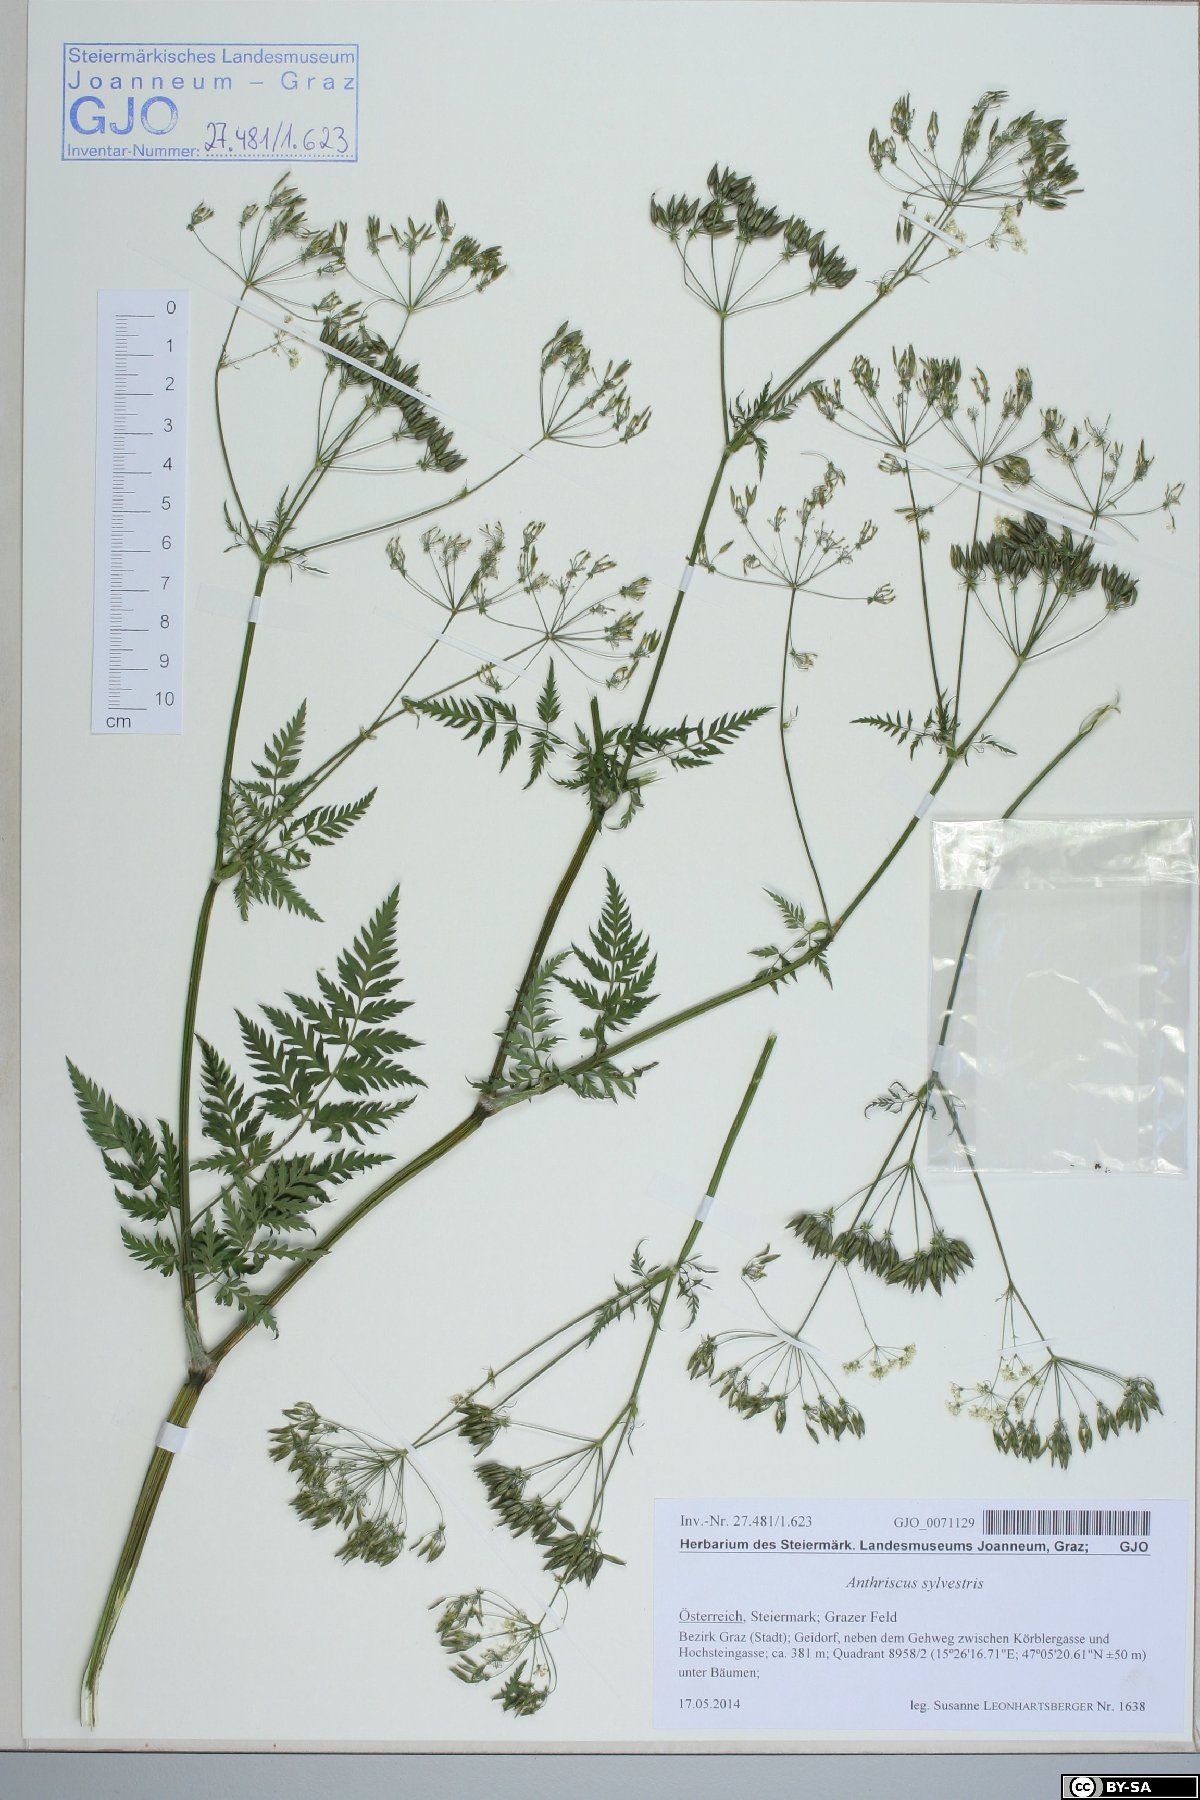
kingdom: Plantae
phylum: Tracheophyta
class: Magnoliopsida
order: Apiales
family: Apiaceae
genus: Anthriscus
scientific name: Anthriscus sylvestris
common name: Cow parsley
